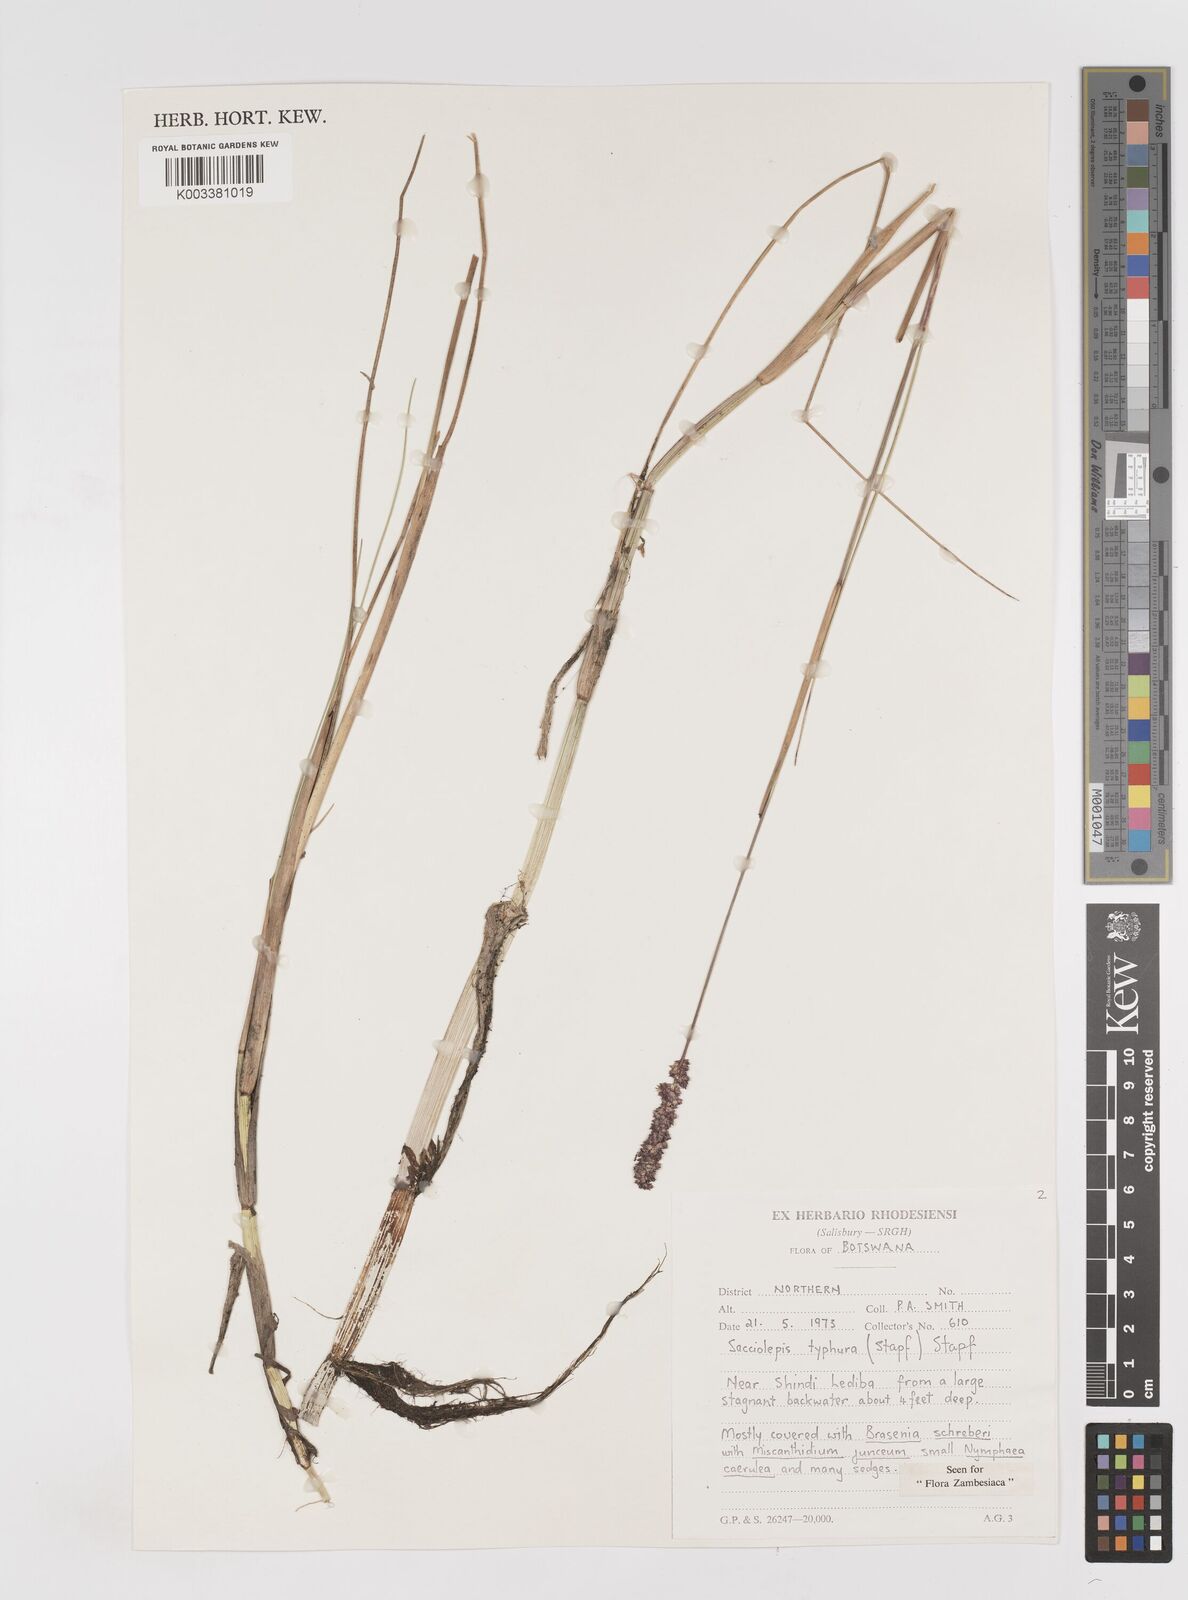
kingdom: Plantae
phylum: Tracheophyta
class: Liliopsida
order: Poales
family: Poaceae
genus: Sacciolepis
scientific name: Sacciolepis typhura
